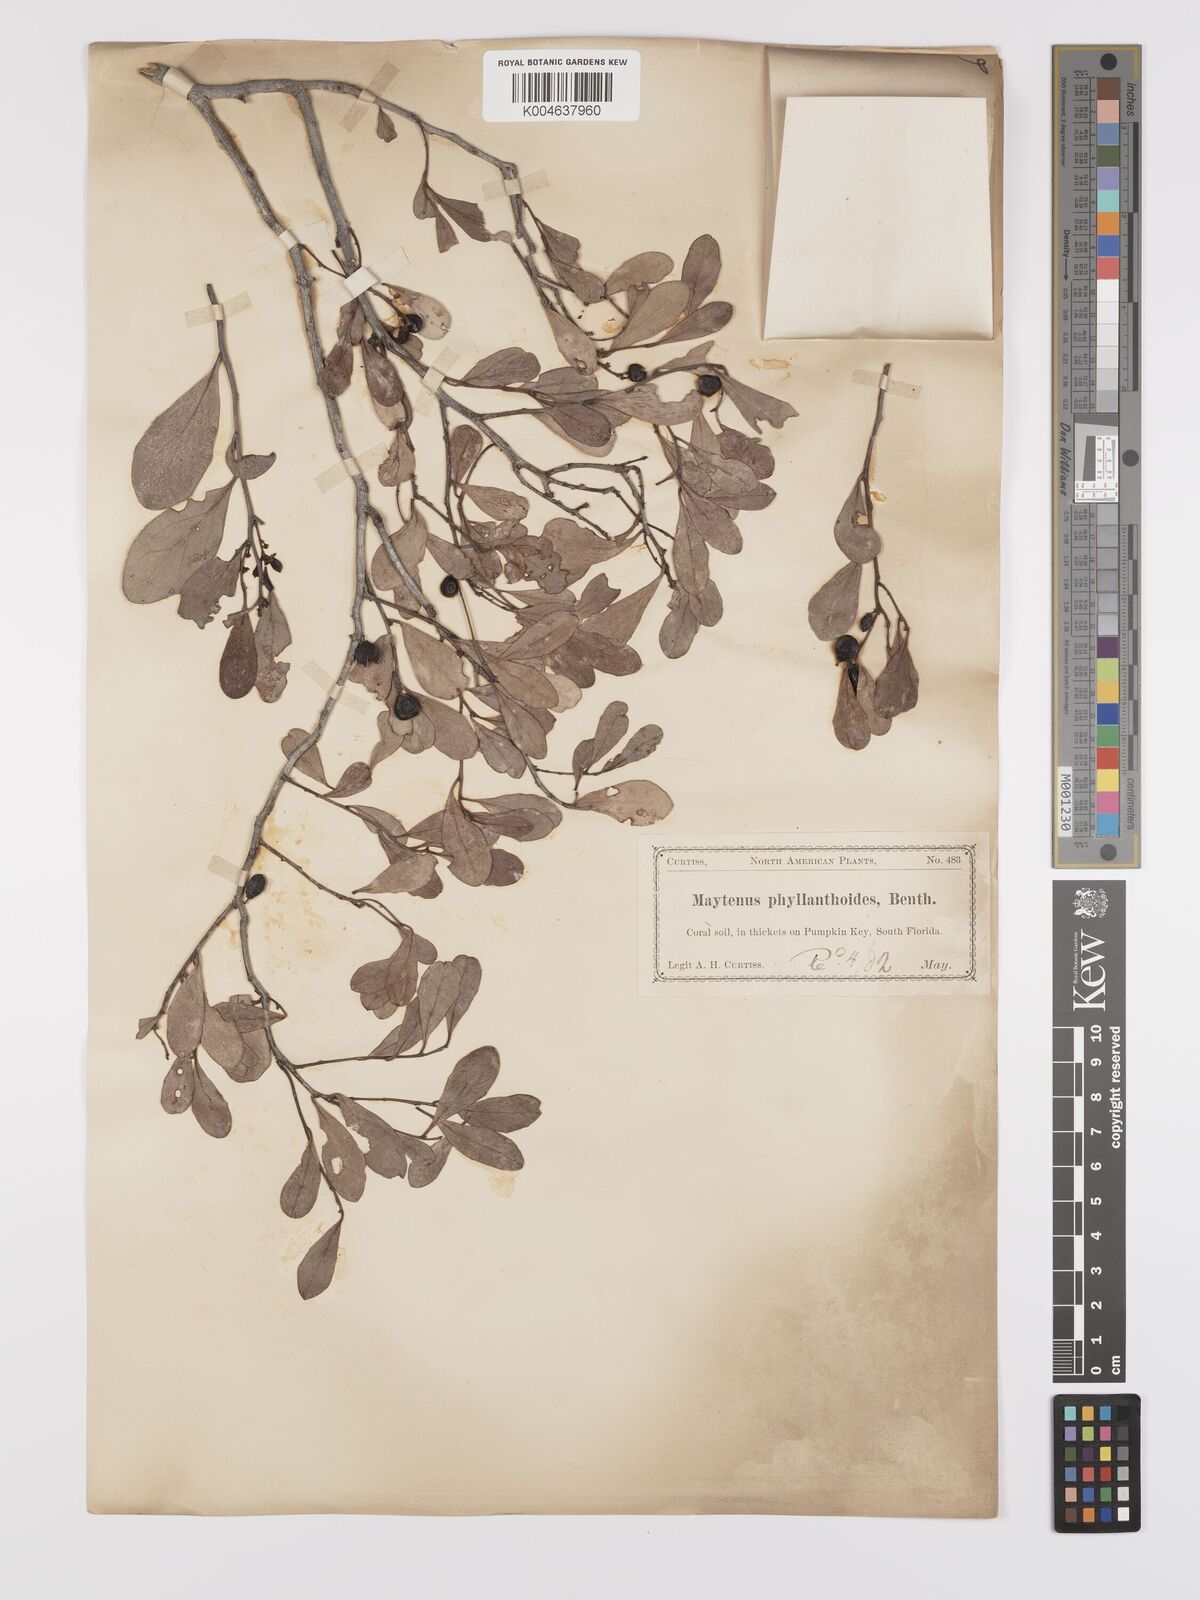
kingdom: Plantae
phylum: Tracheophyta
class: Magnoliopsida
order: Celastrales
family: Celastraceae
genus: Tricerma
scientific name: Tricerma phyllanthoides
